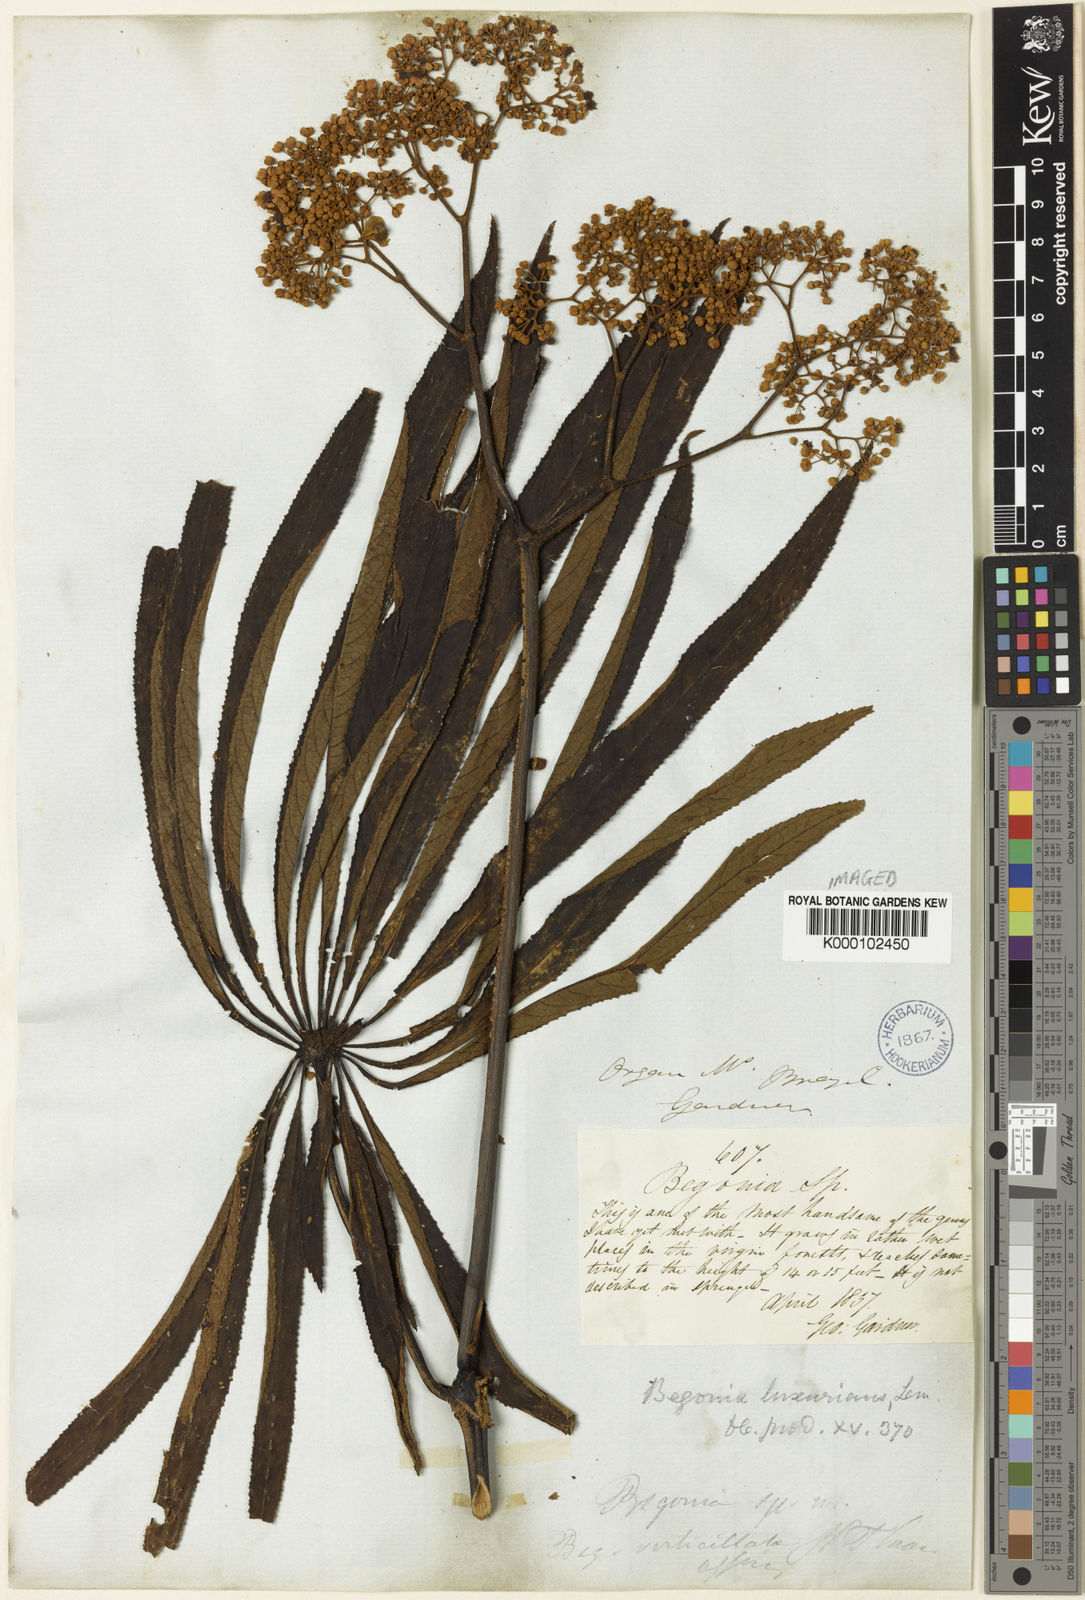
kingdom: Plantae
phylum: Tracheophyta
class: Magnoliopsida
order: Cucurbitales
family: Begoniaceae
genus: Begonia
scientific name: Begonia
